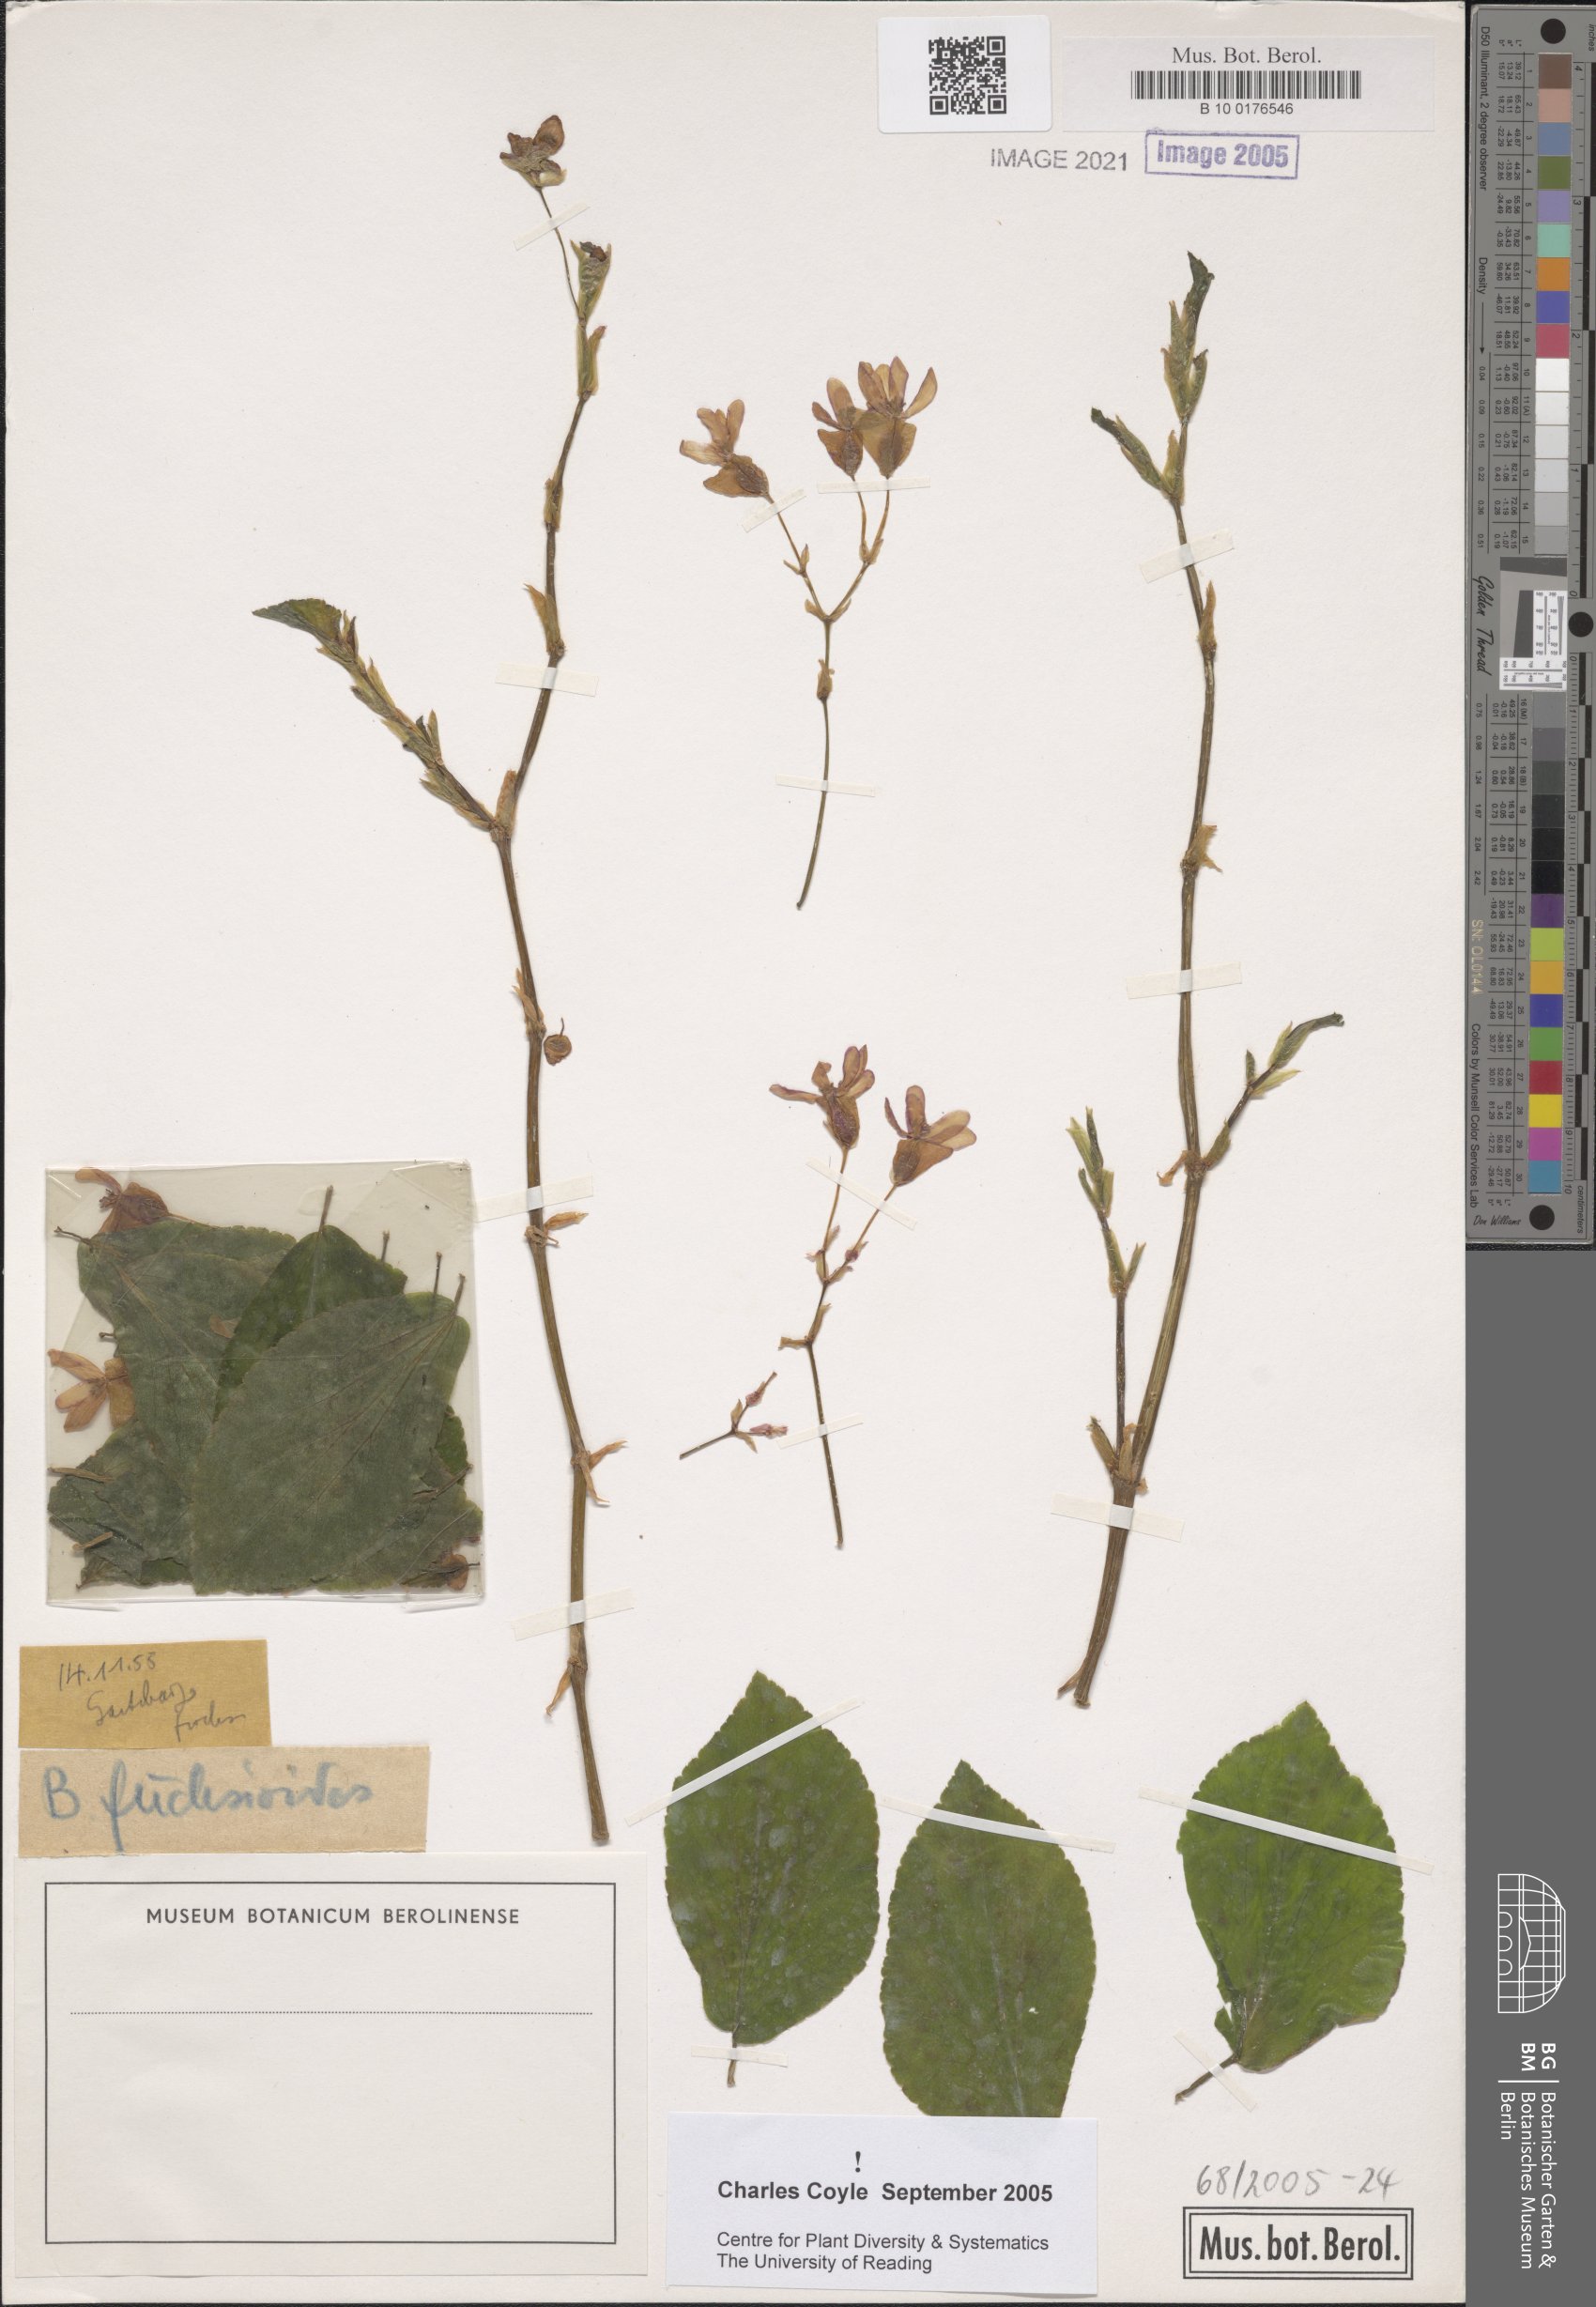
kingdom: Plantae
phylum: Tracheophyta
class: Magnoliopsida
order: Cucurbitales
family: Begoniaceae
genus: Begonia
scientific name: Begonia fuchsioides
